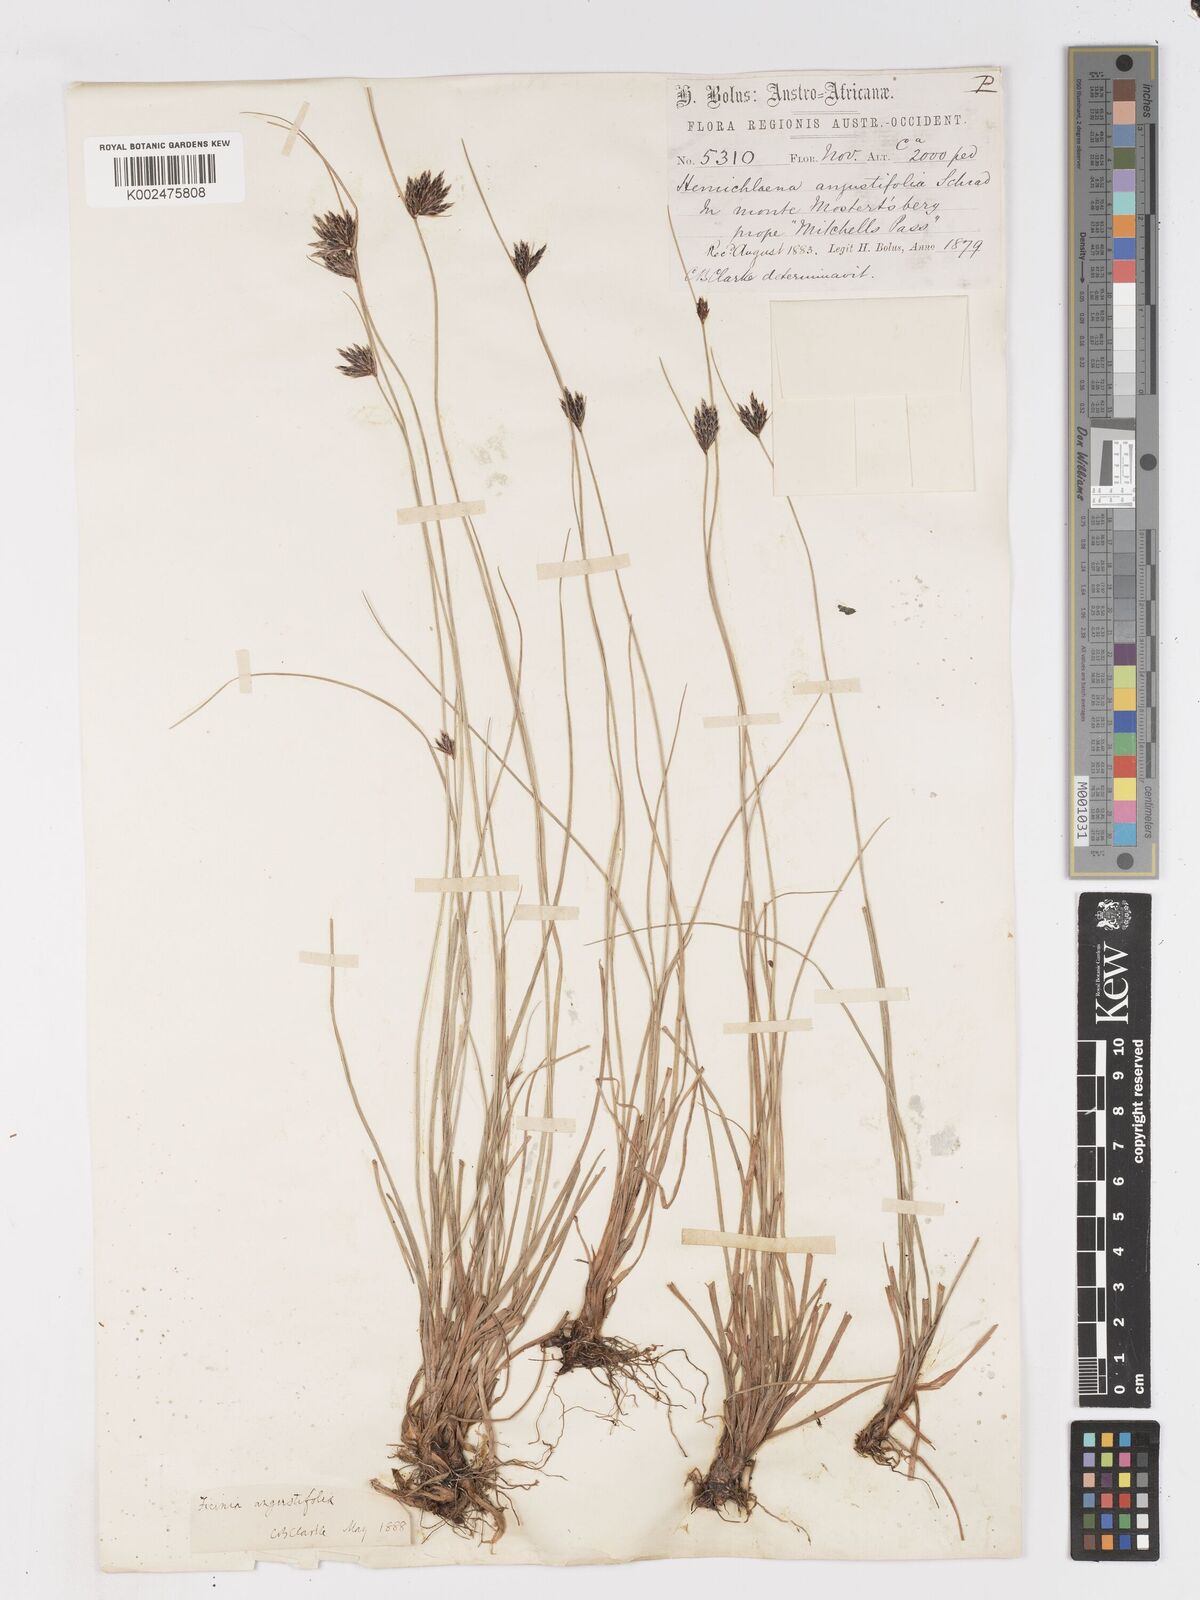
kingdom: Plantae
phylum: Tracheophyta
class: Liliopsida
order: Poales
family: Cyperaceae
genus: Ficinia
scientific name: Ficinia angustifolia
